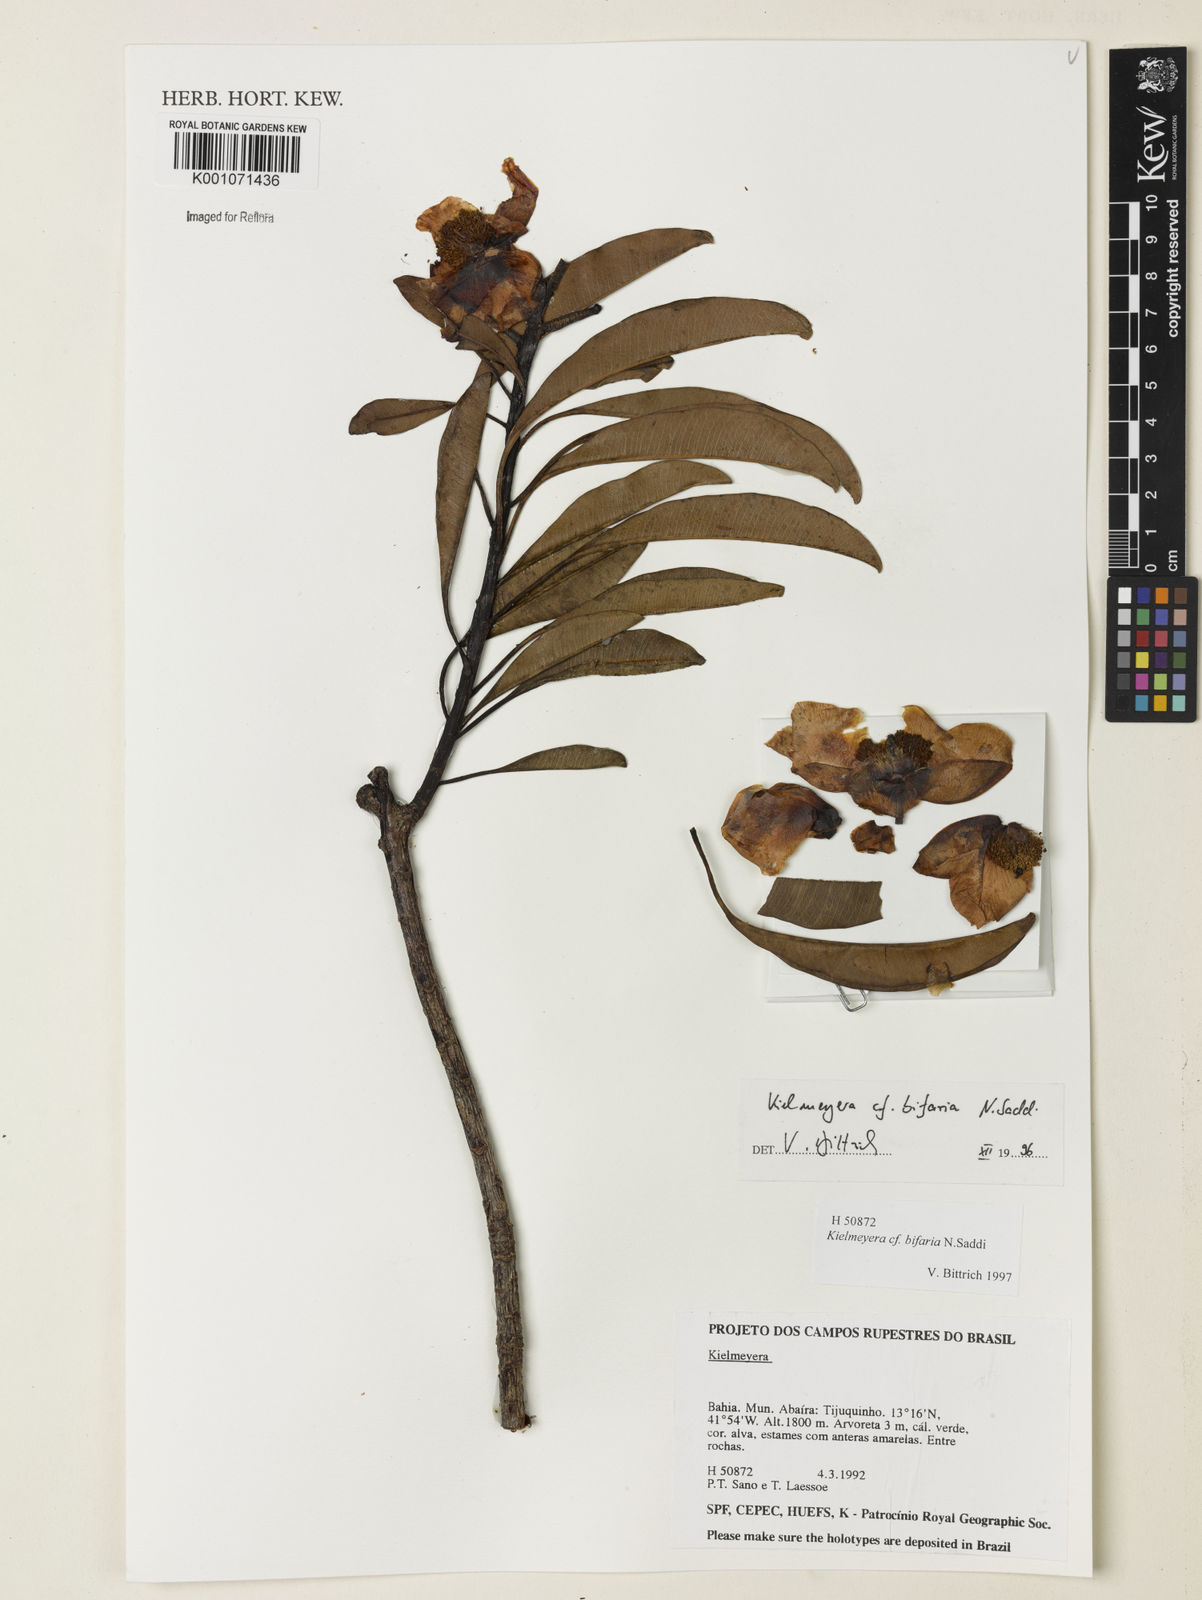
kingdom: Plantae
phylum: Tracheophyta
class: Magnoliopsida
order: Malpighiales
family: Calophyllaceae
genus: Kielmeyera
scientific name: Kielmeyera bifaria
